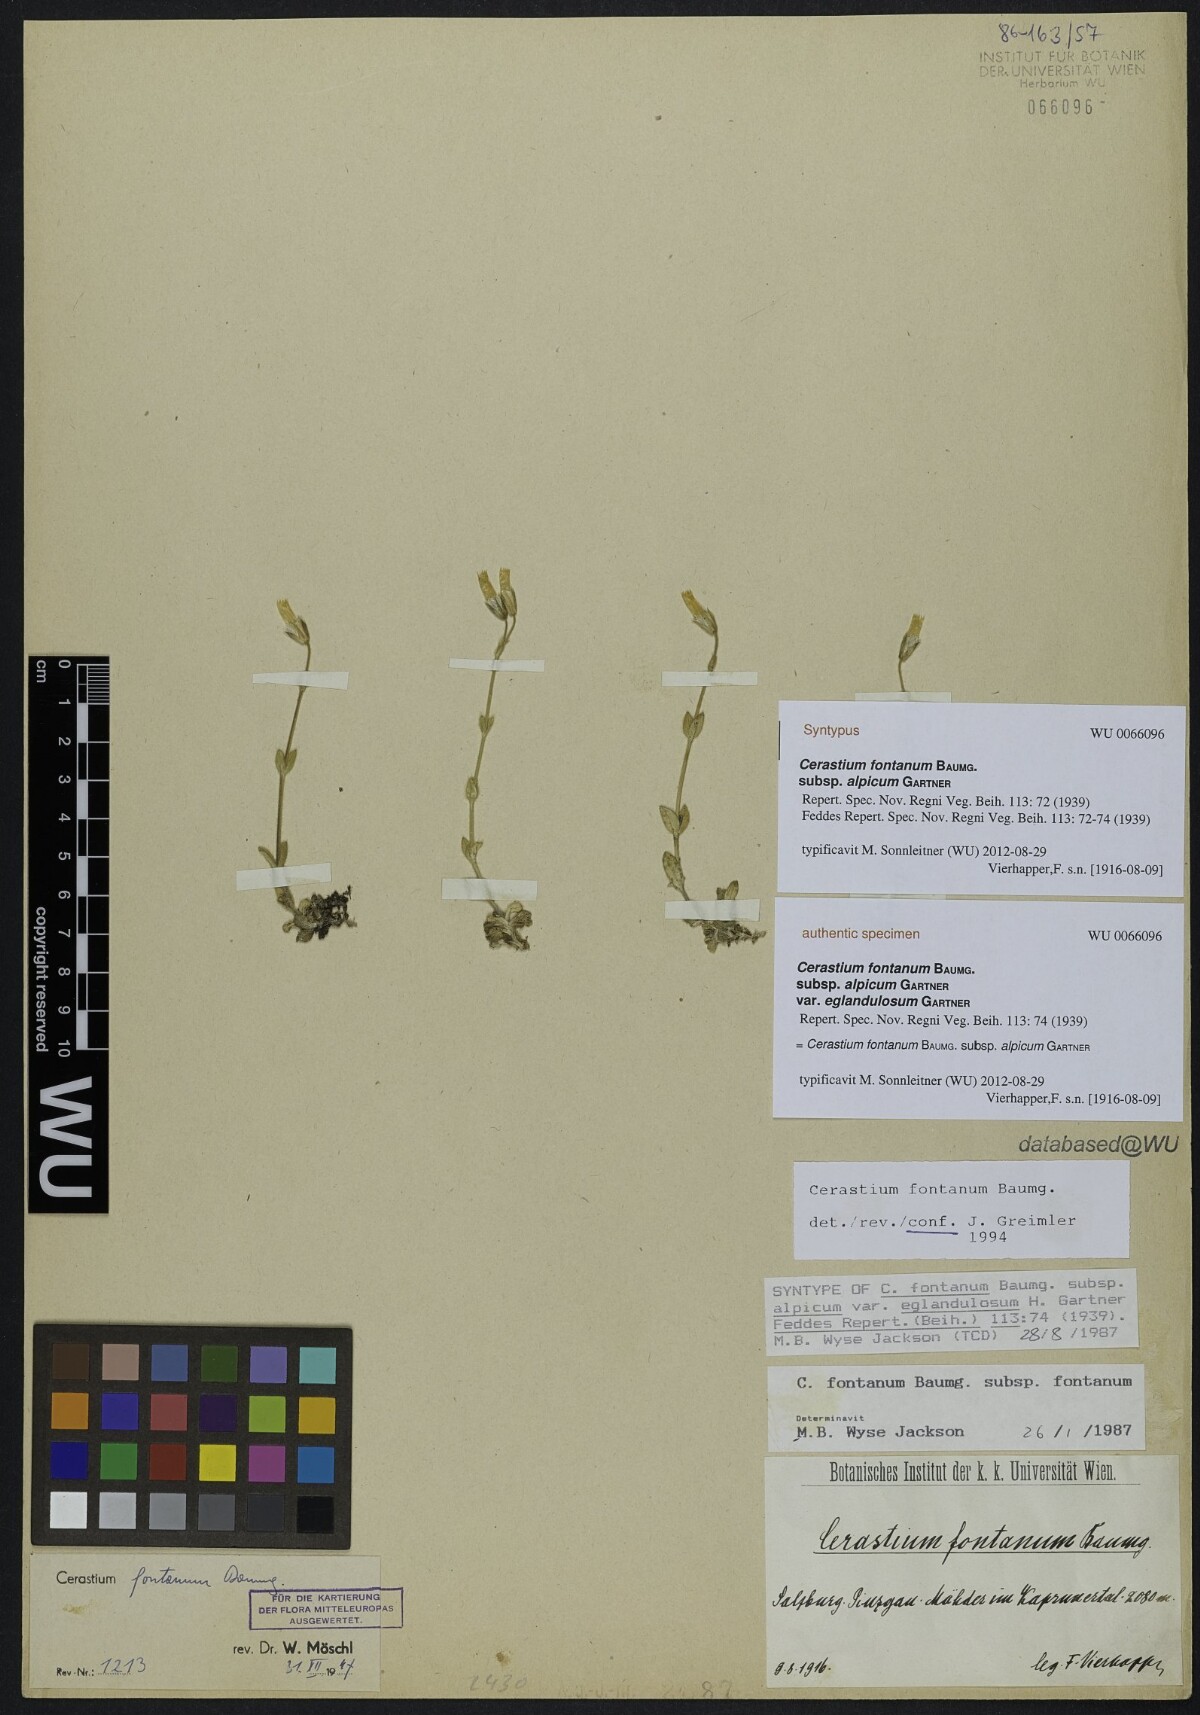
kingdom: Plantae
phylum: Tracheophyta
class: Magnoliopsida
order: Caryophyllales
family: Caryophyllaceae
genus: Cerastium
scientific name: Cerastium fontanum
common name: Common mouse-ear
